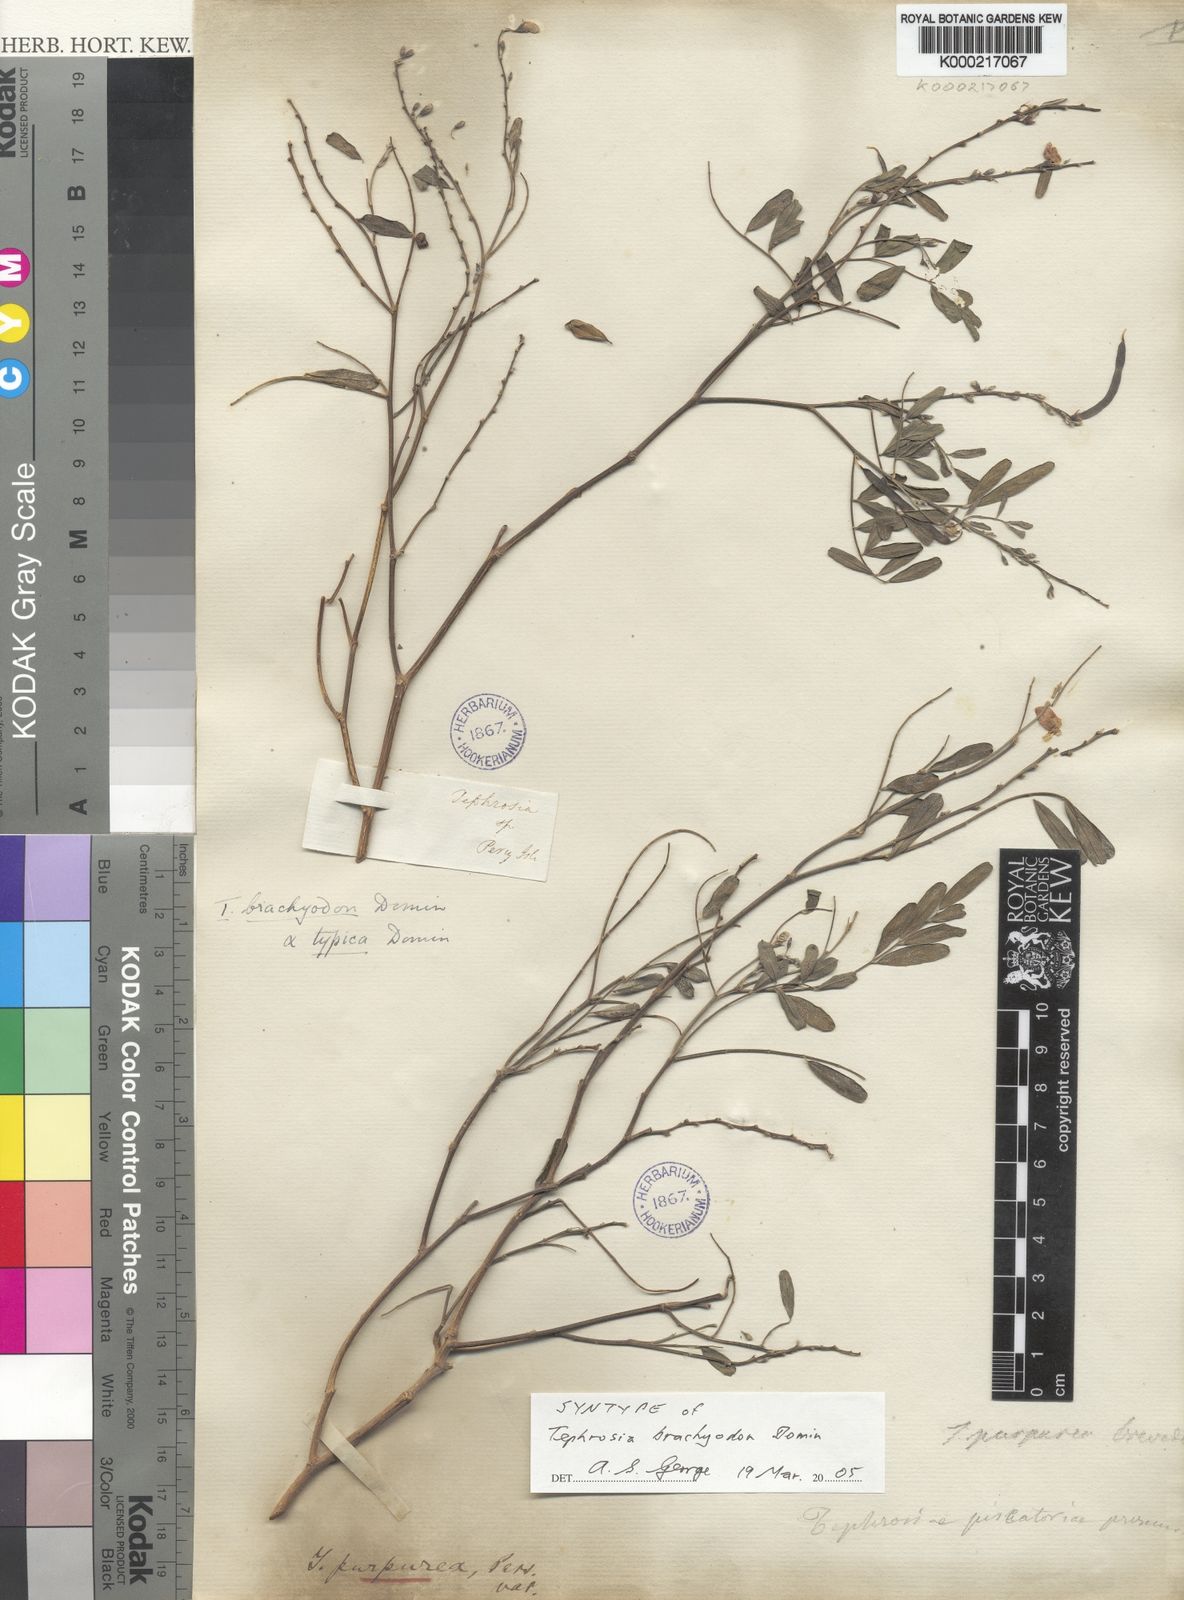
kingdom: Plantae
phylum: Tracheophyta
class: Magnoliopsida
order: Fabales
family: Fabaceae
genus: Tephrosia
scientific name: Tephrosia brachyodon
